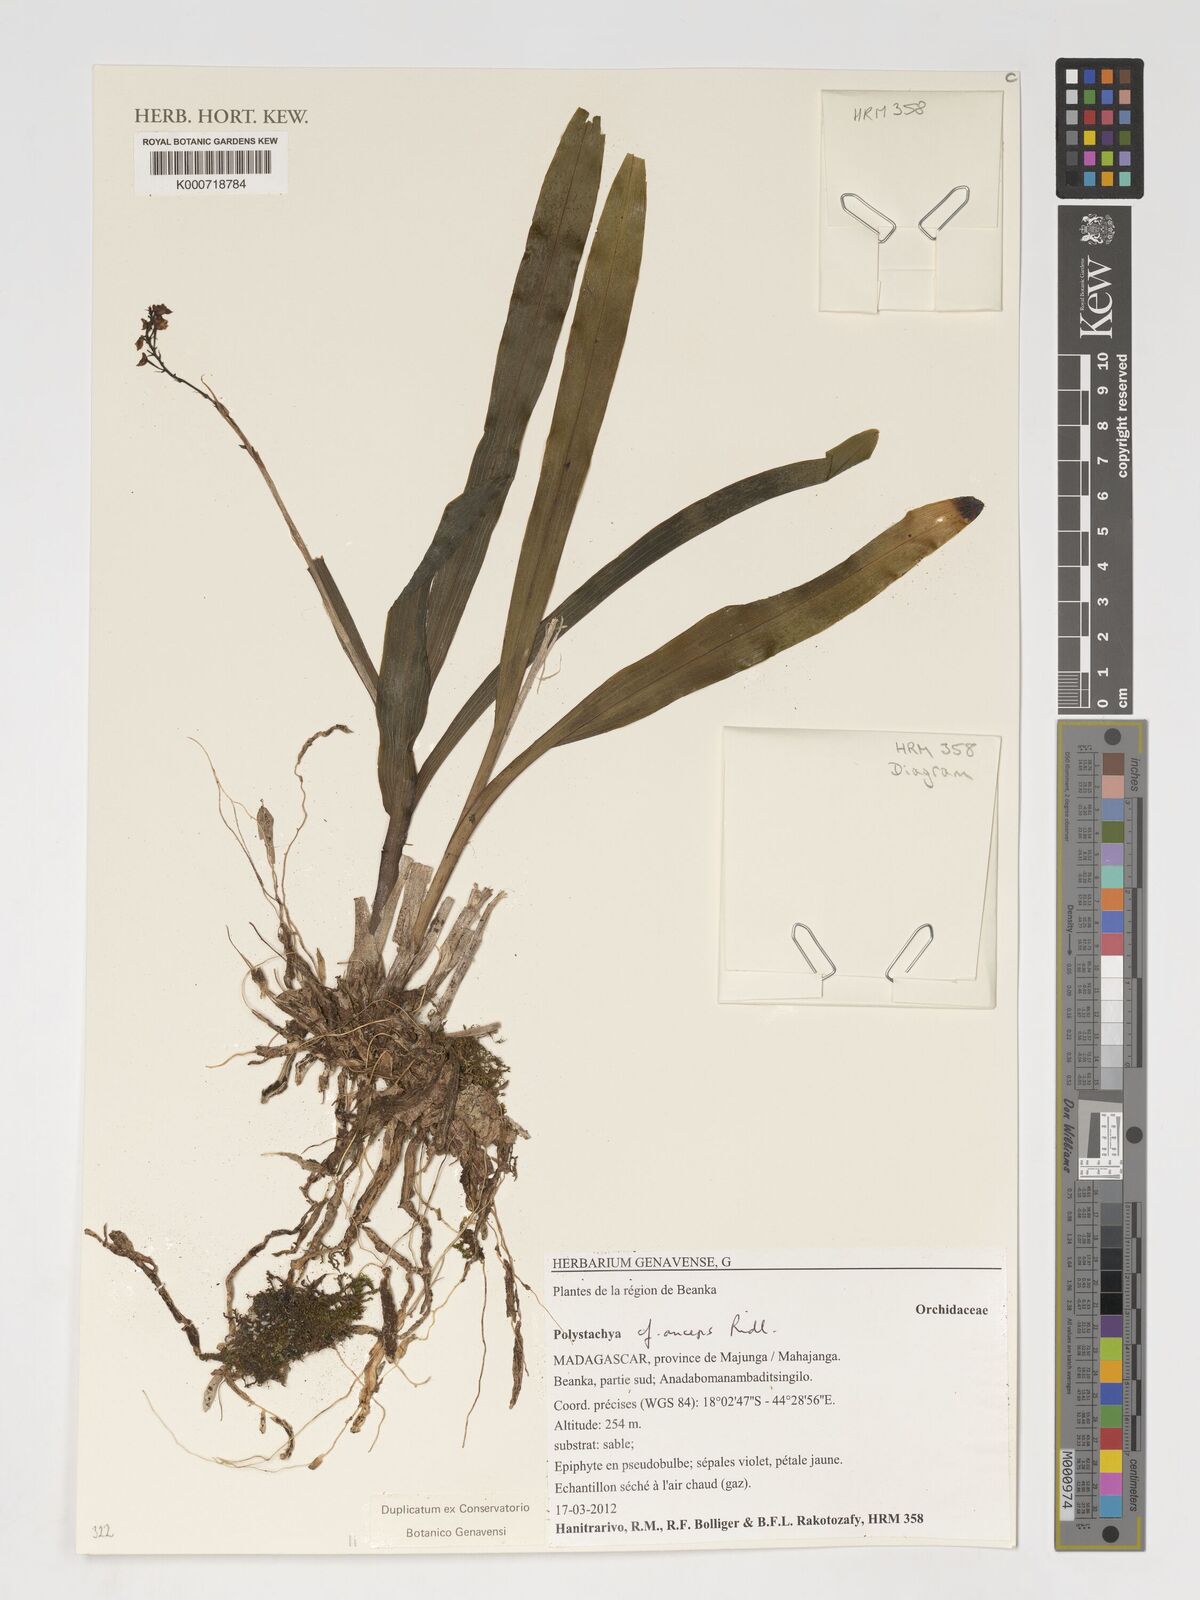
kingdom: Plantae
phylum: Tracheophyta
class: Liliopsida
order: Asparagales
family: Orchidaceae
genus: Polystachya
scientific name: Polystachya anceps
